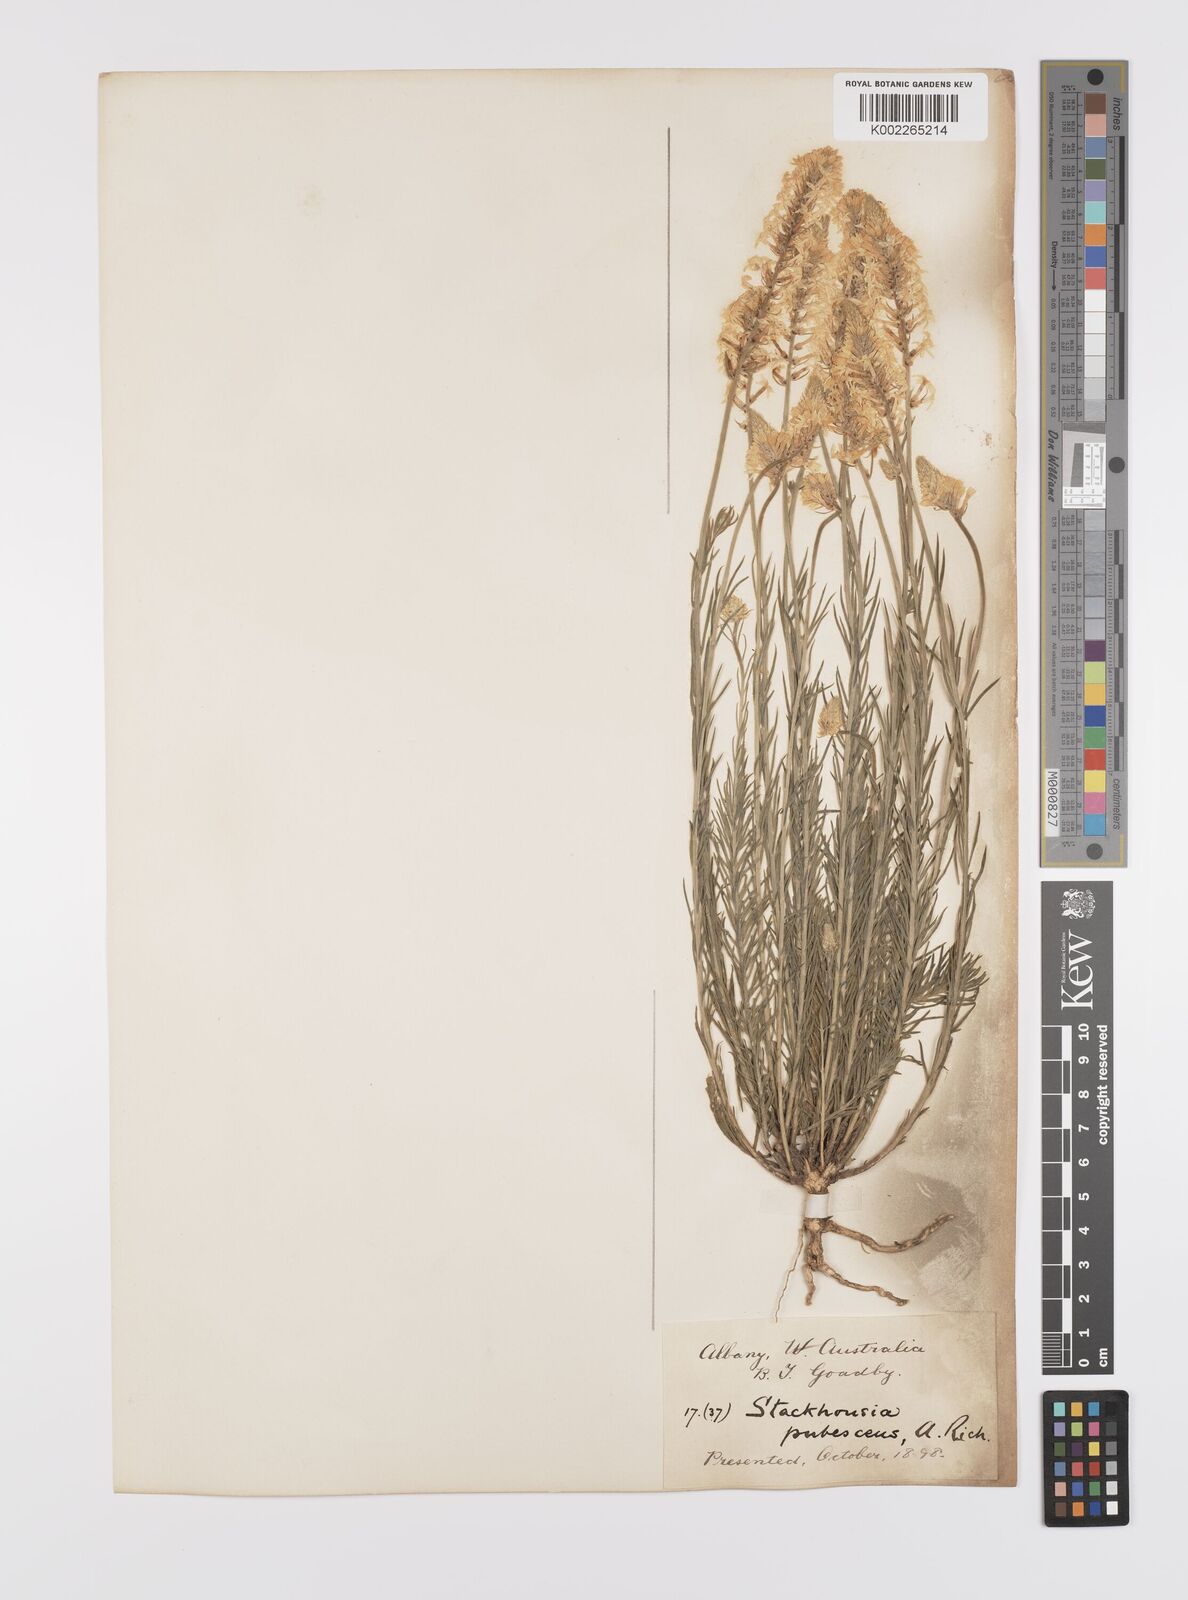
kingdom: Plantae
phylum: Tracheophyta
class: Magnoliopsida
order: Celastrales
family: Celastraceae
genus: Stackhousia
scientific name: Stackhousia monogyna
